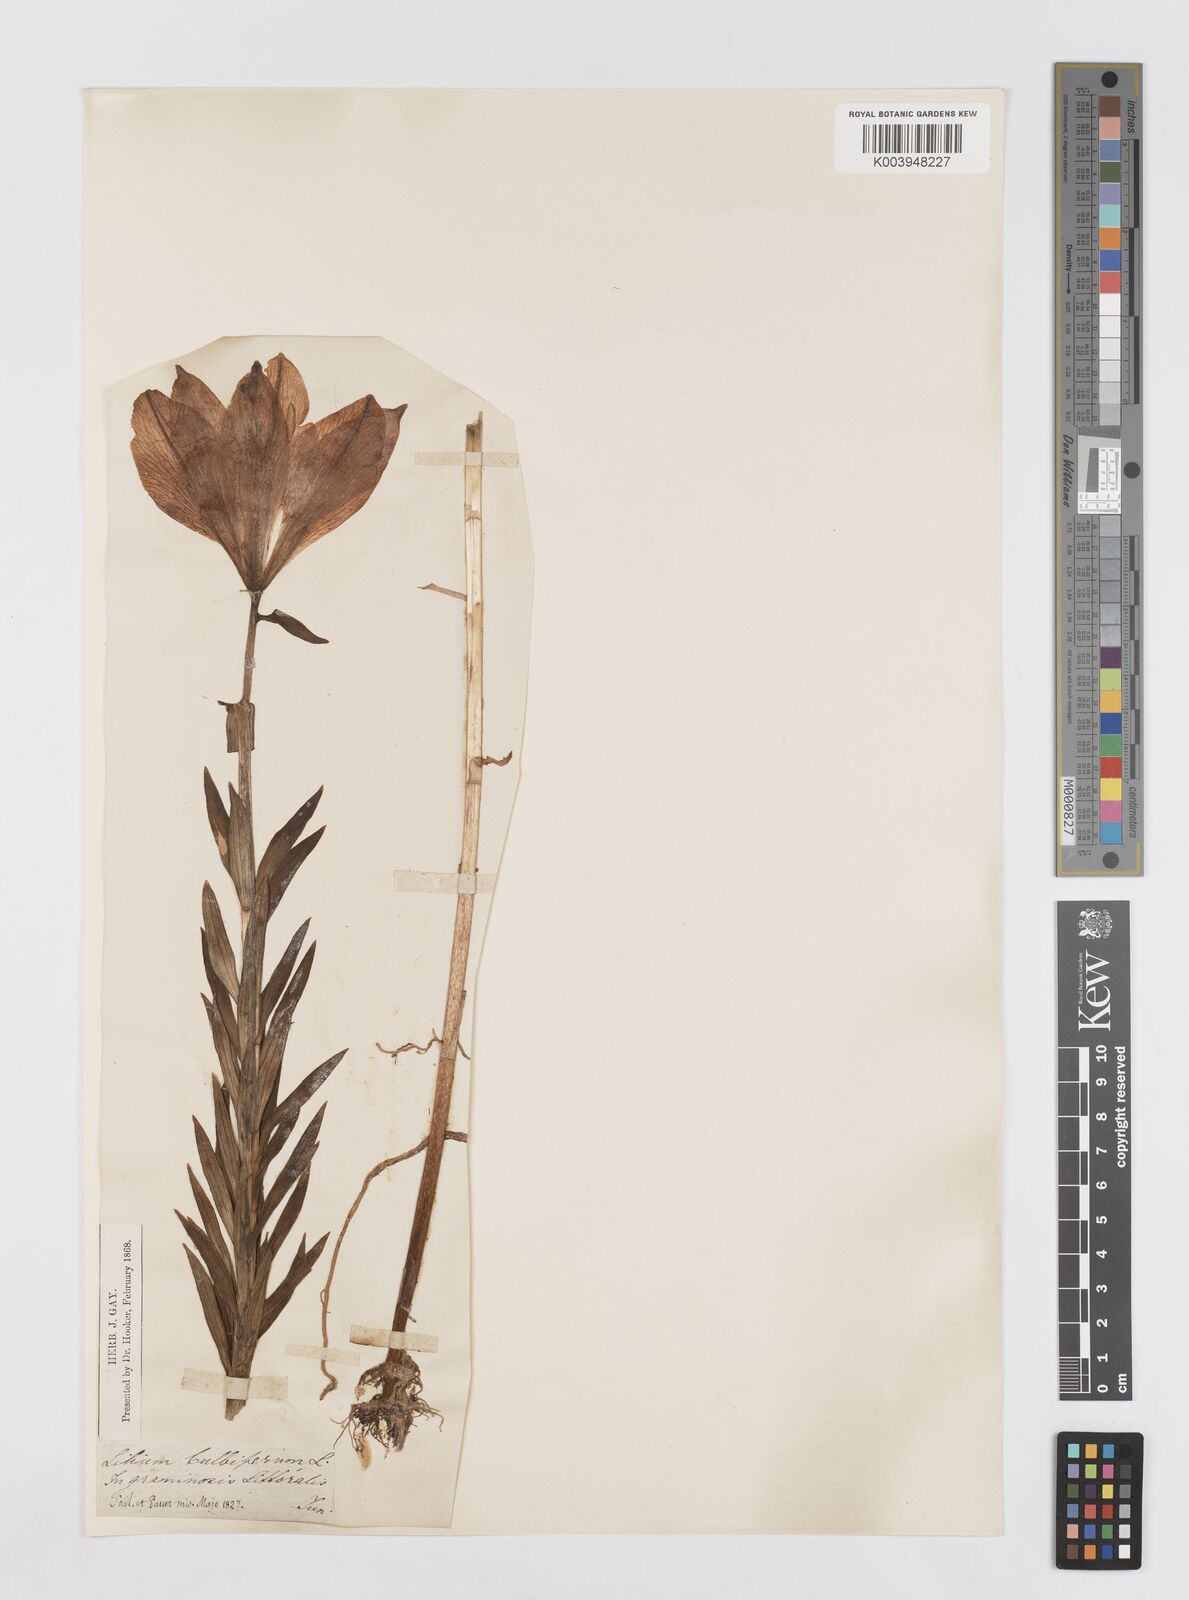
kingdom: Plantae
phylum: Tracheophyta
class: Liliopsida
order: Liliales
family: Liliaceae
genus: Lilium
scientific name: Lilium bulbiferum
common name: Orange lily
